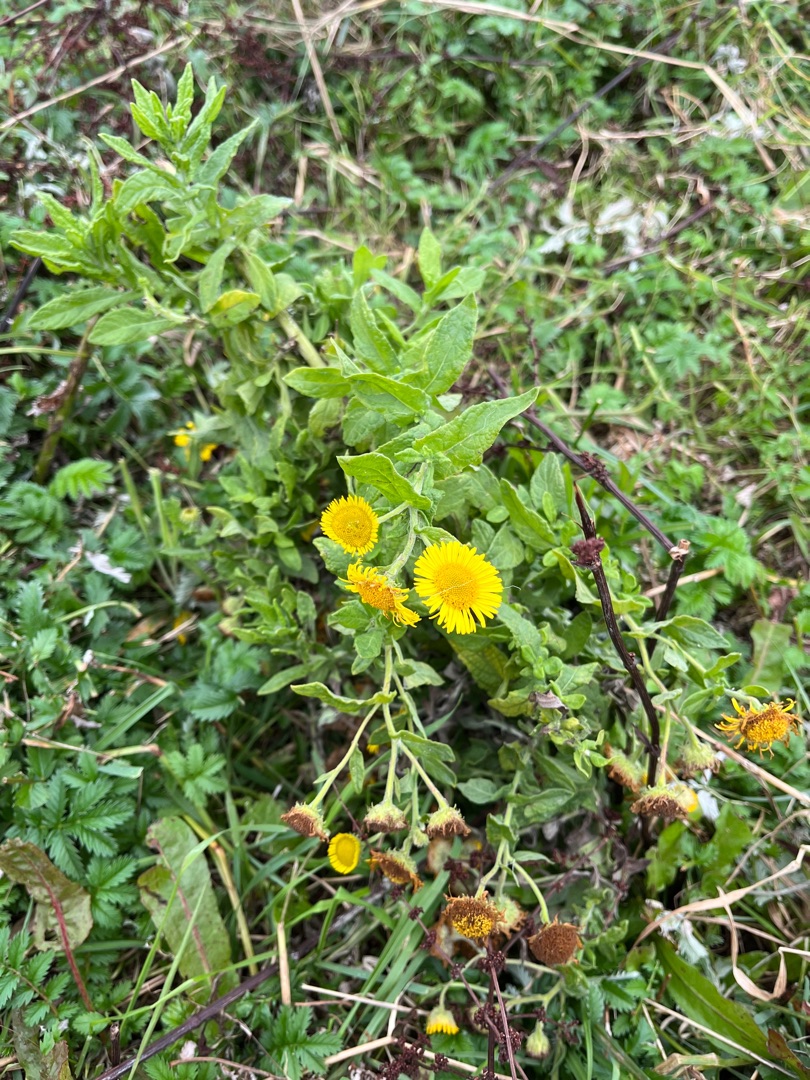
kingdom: Plantae
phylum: Tracheophyta
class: Magnoliopsida
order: Asterales
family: Asteraceae
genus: Pulicaria
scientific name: Pulicaria dysenterica
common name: Strand-loppeurt
